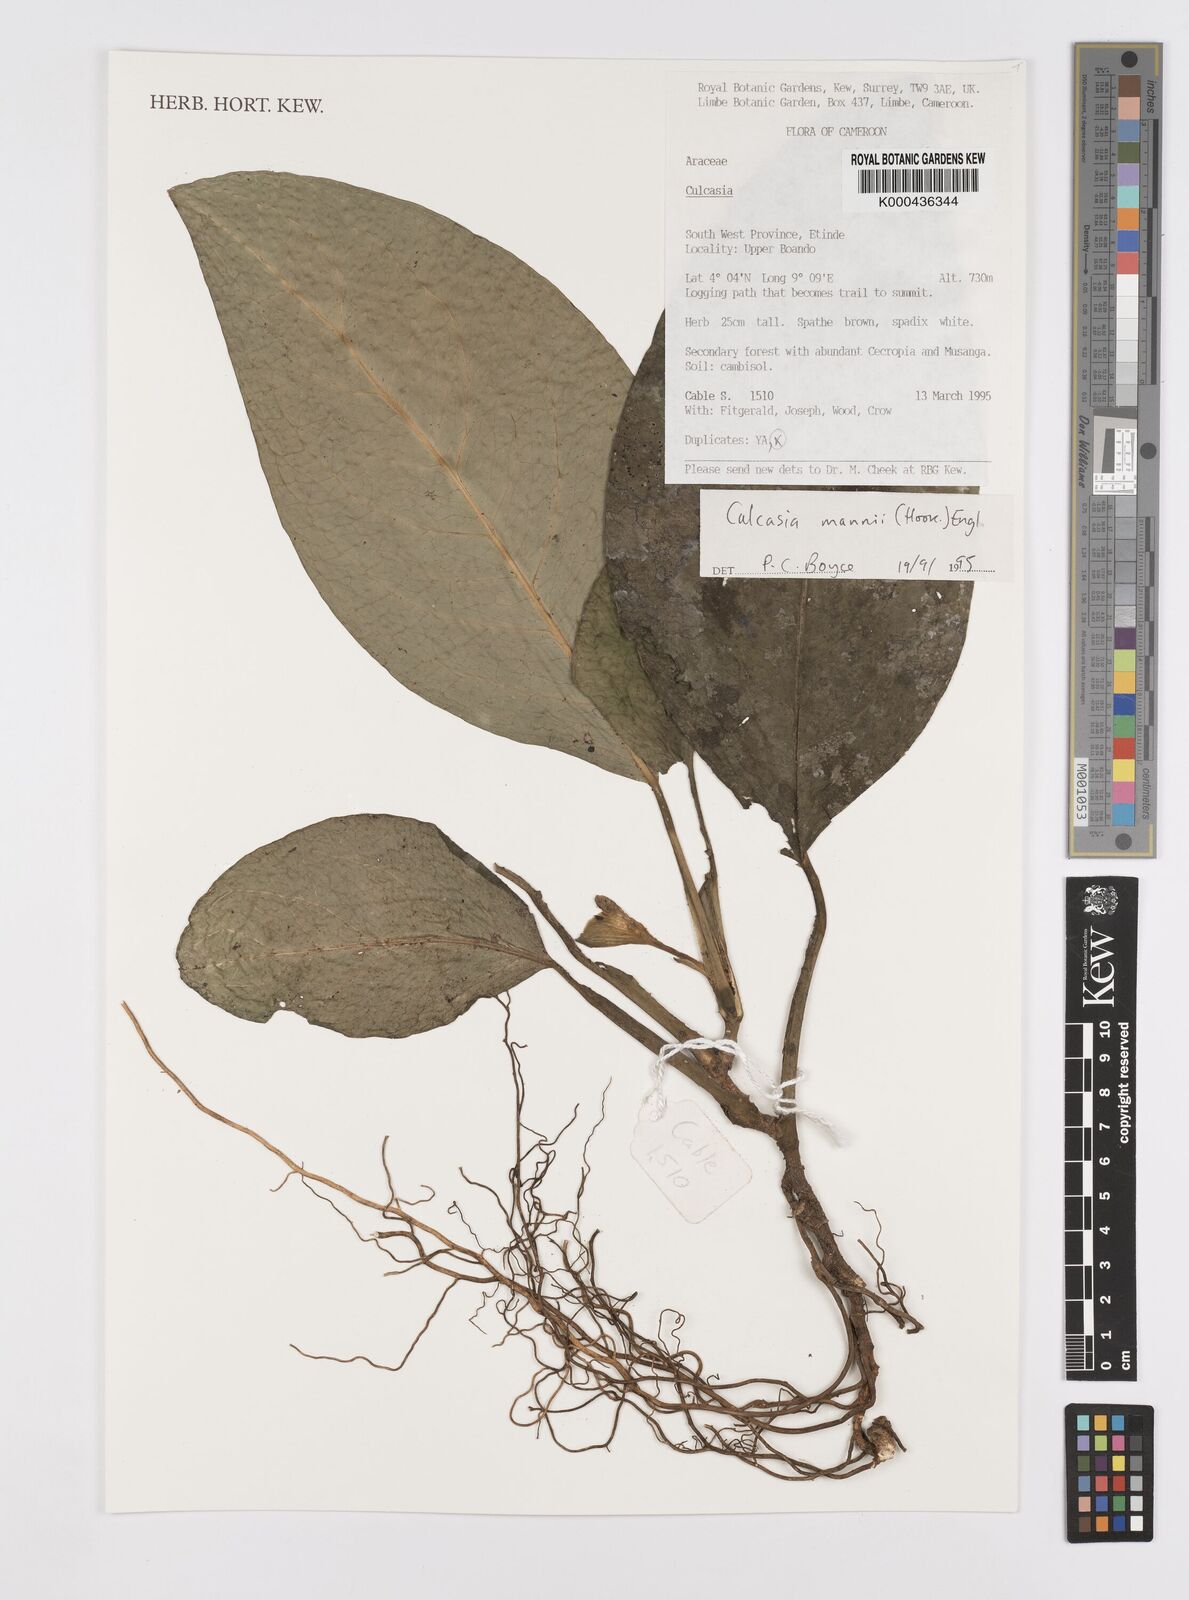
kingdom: Plantae
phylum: Tracheophyta
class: Liliopsida
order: Alismatales
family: Araceae
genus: Culcasia
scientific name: Culcasia mannii
